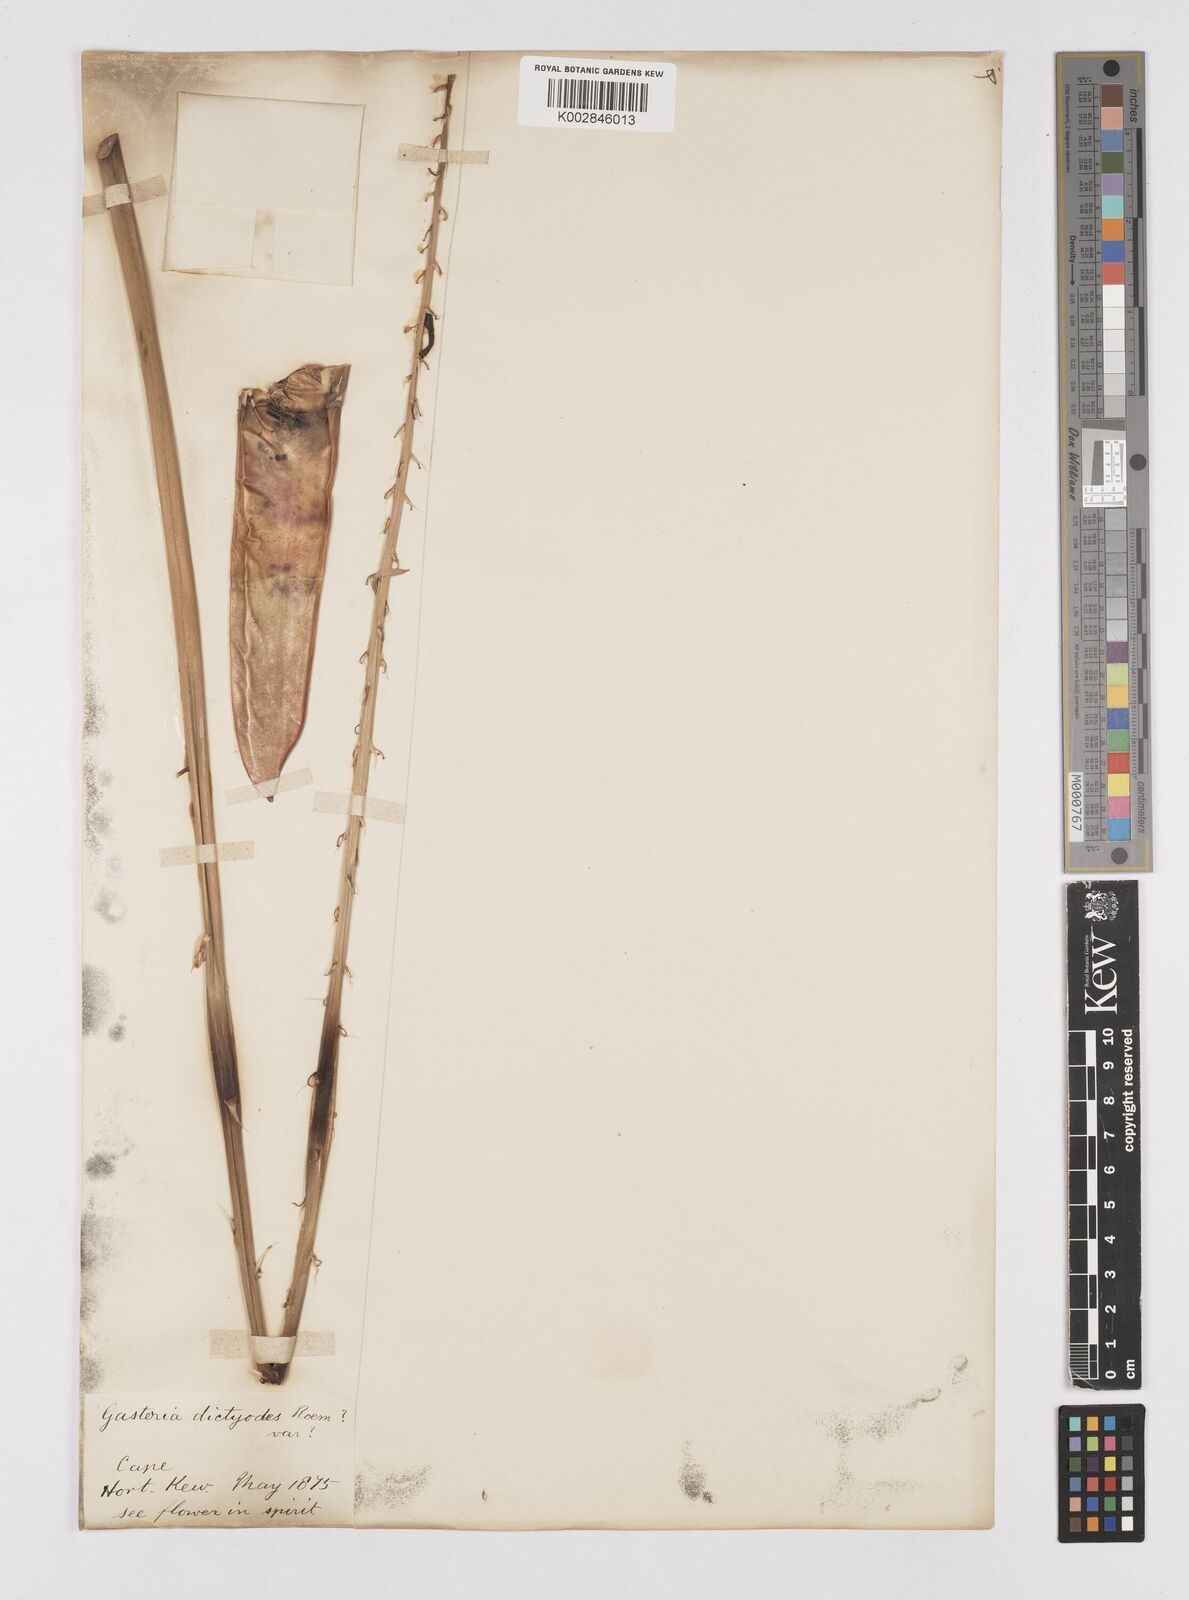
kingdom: Plantae
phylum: Tracheophyta
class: Liliopsida
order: Asparagales
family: Asphodelaceae
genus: Gasteria
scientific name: Gasteria obliqua
